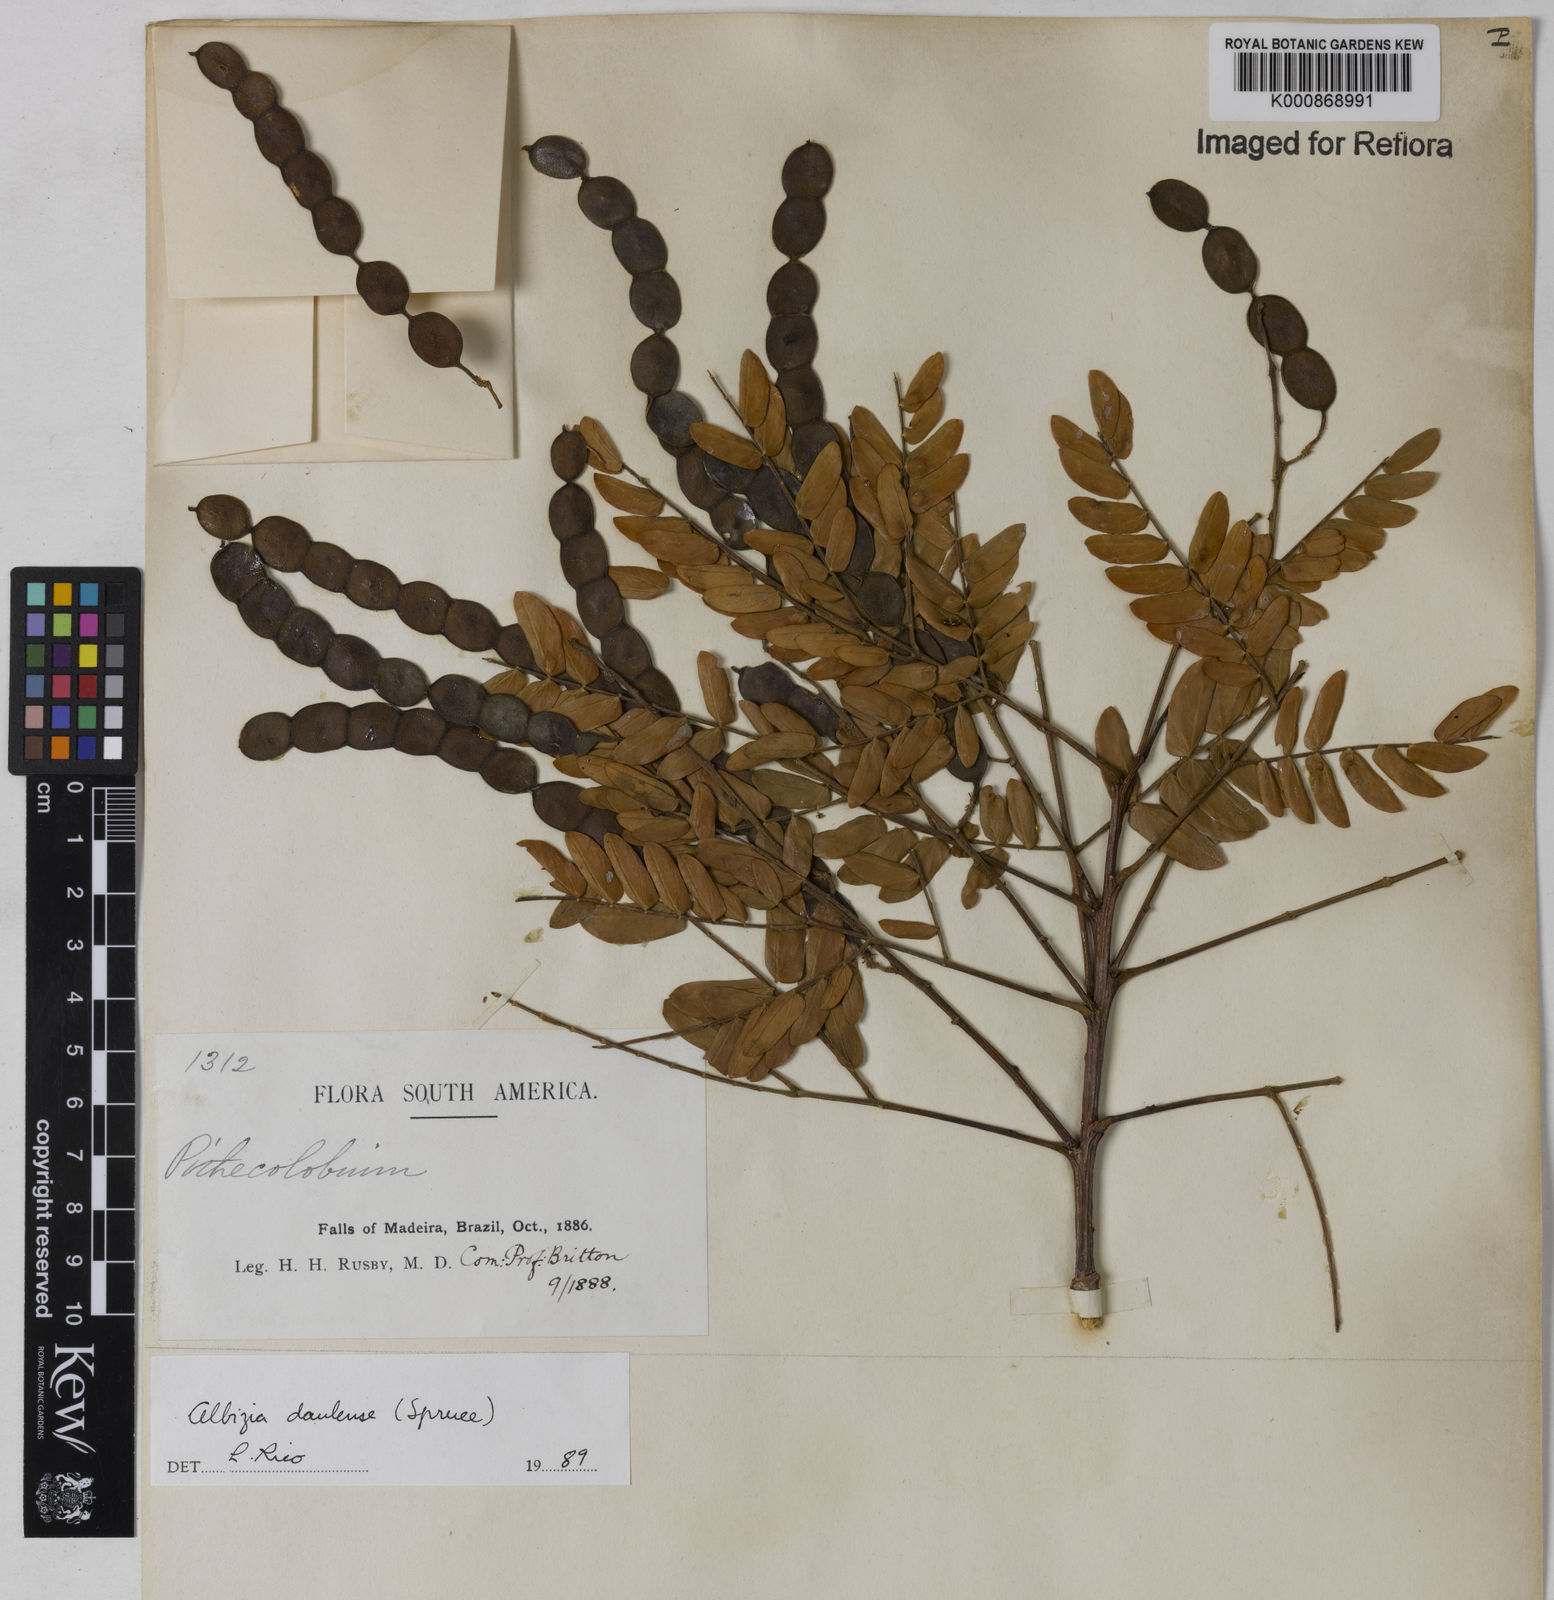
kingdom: Plantae
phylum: Tracheophyta
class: Magnoliopsida
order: Fabales
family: Fabaceae
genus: Albizia
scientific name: Albizia
